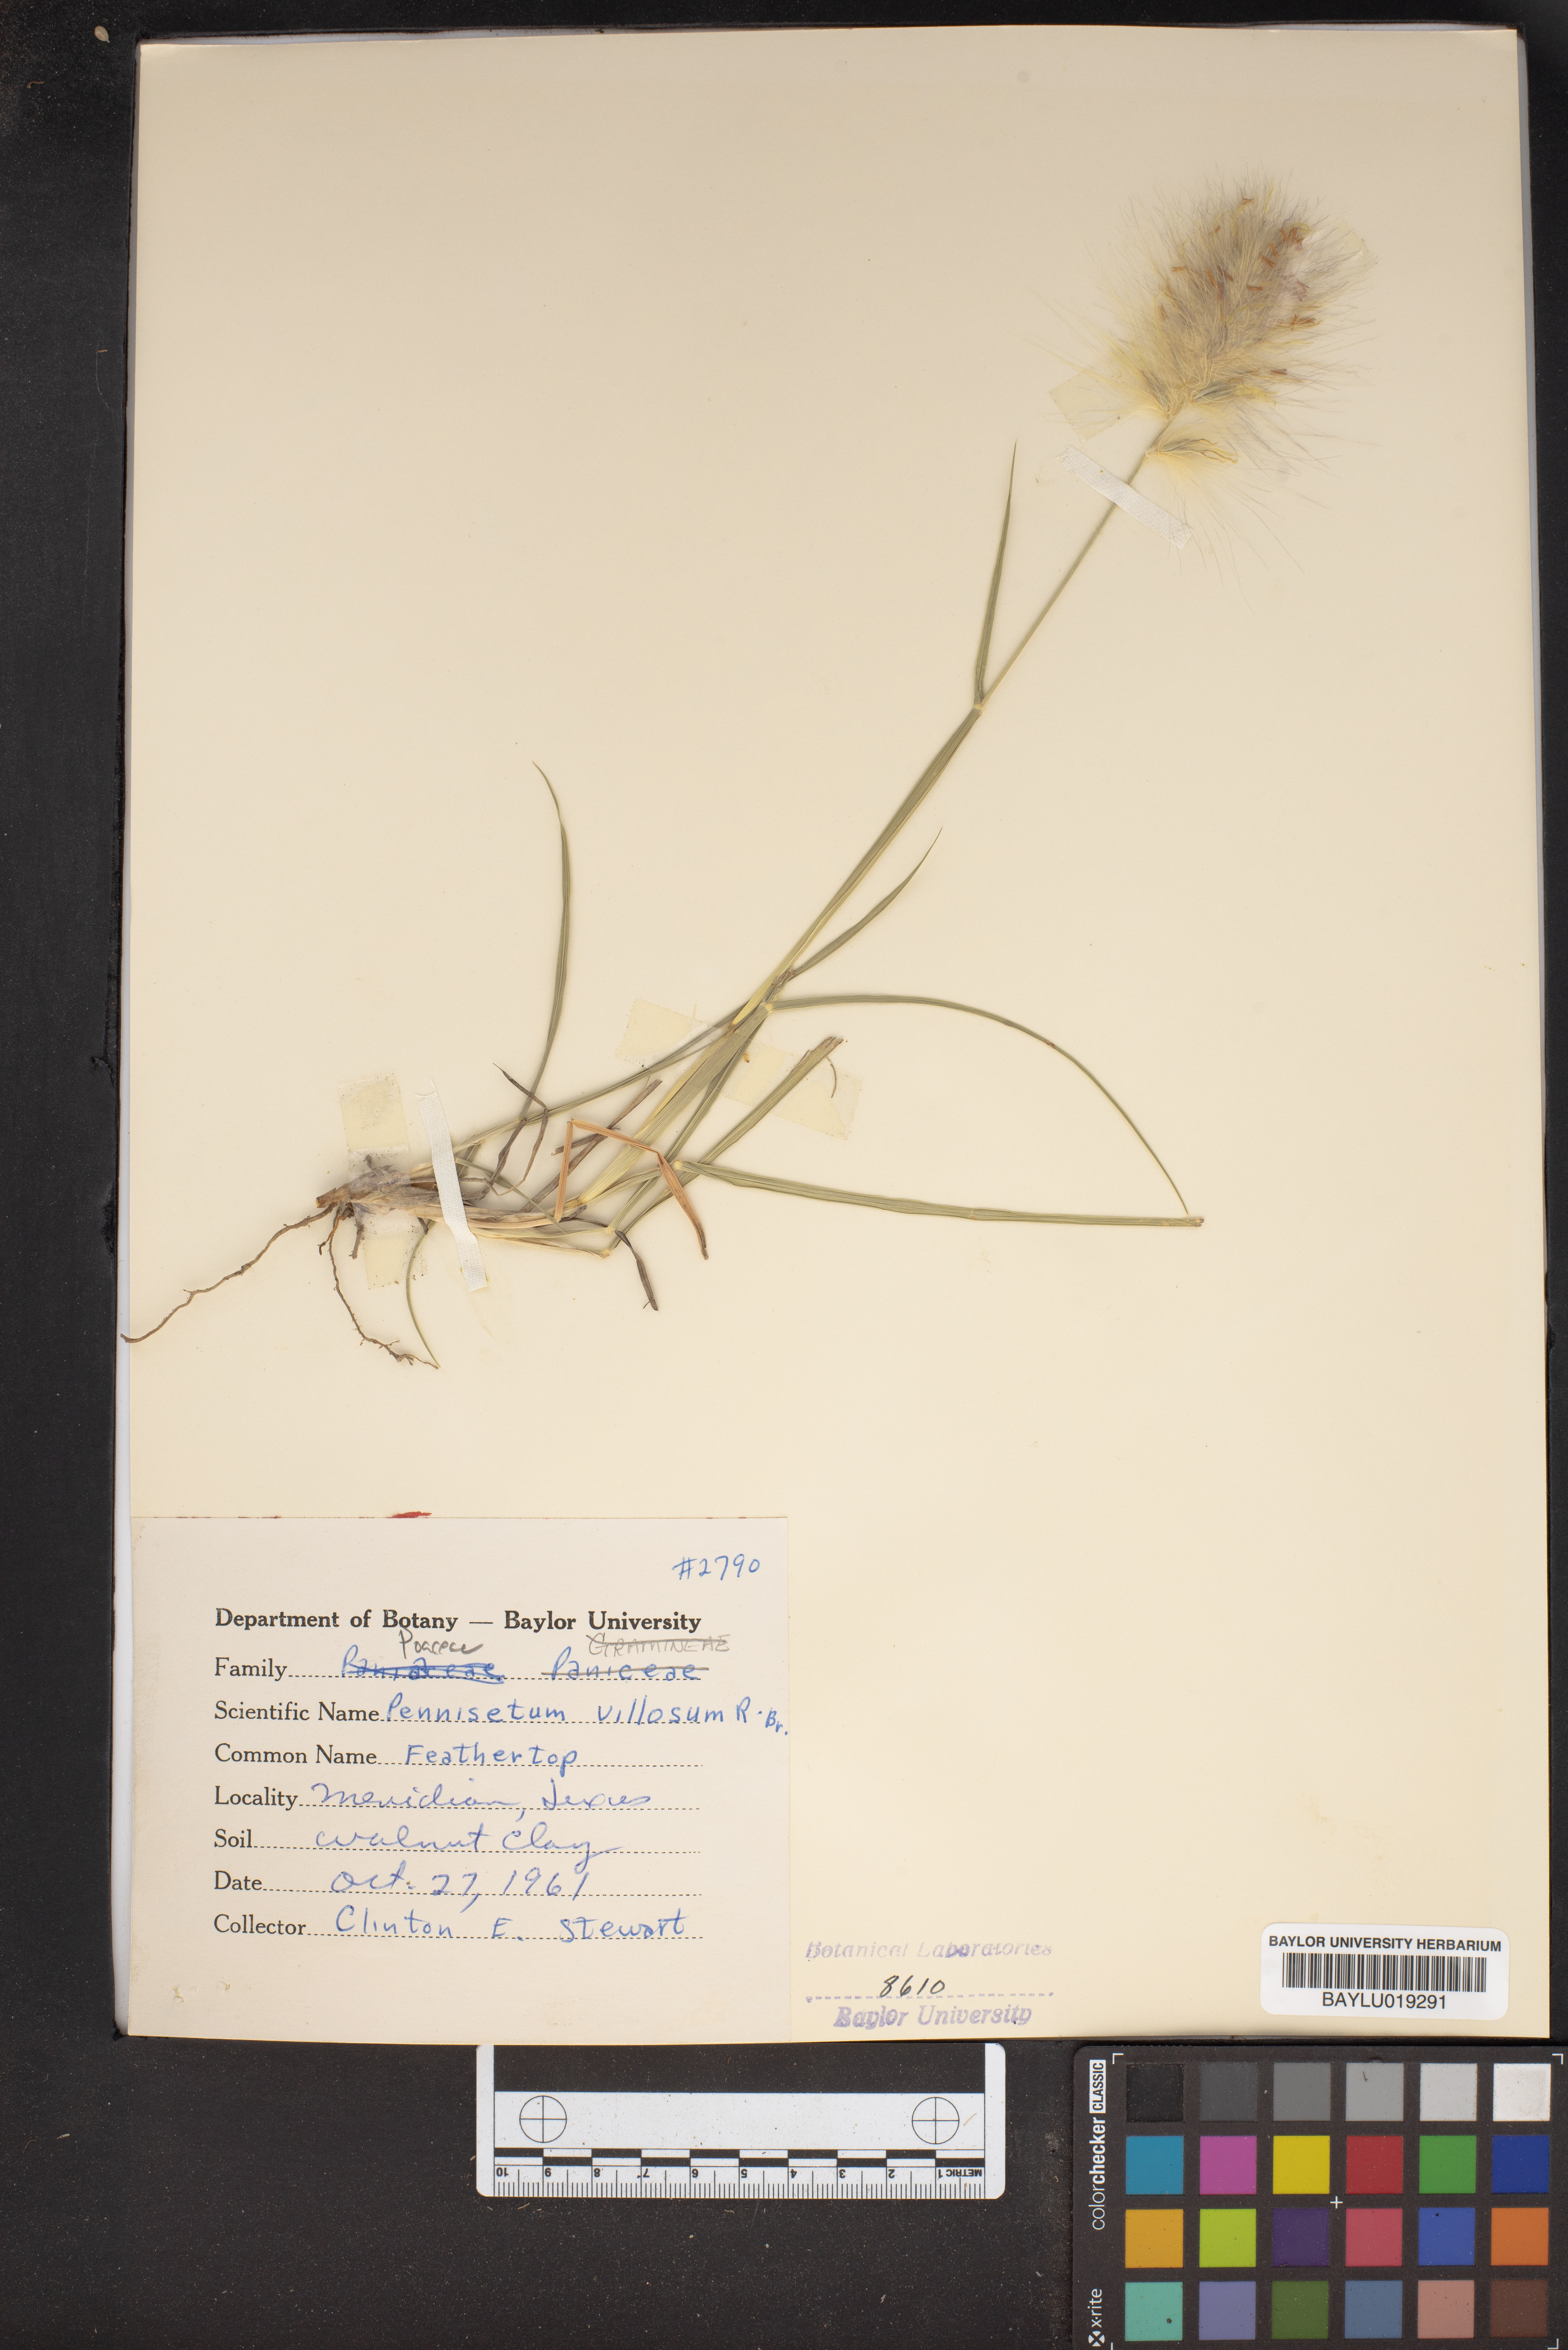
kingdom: Plantae
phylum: Tracheophyta
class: Liliopsida
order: Poales
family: Poaceae
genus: Cenchrus
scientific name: Cenchrus longisetus
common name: Feathertop
